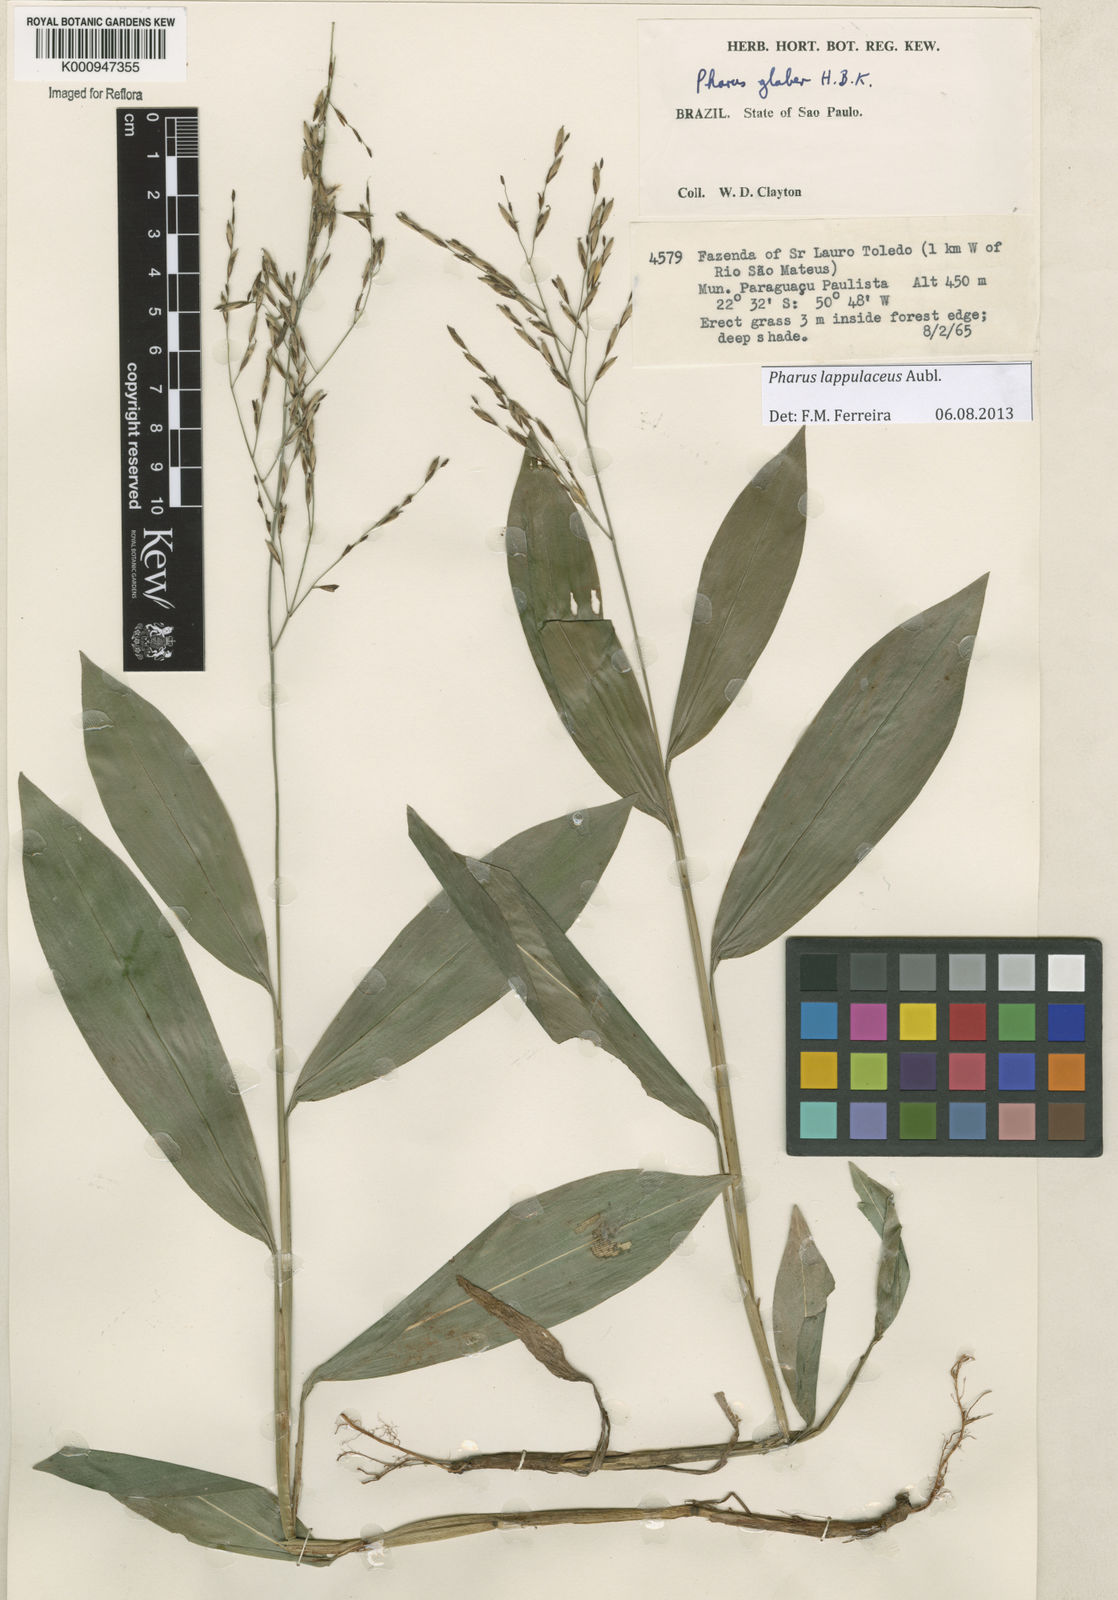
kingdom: Plantae
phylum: Tracheophyta
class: Liliopsida
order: Poales
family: Poaceae
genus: Pharus
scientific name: Pharus lappulaceus
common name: Creeping leafstalk grass
